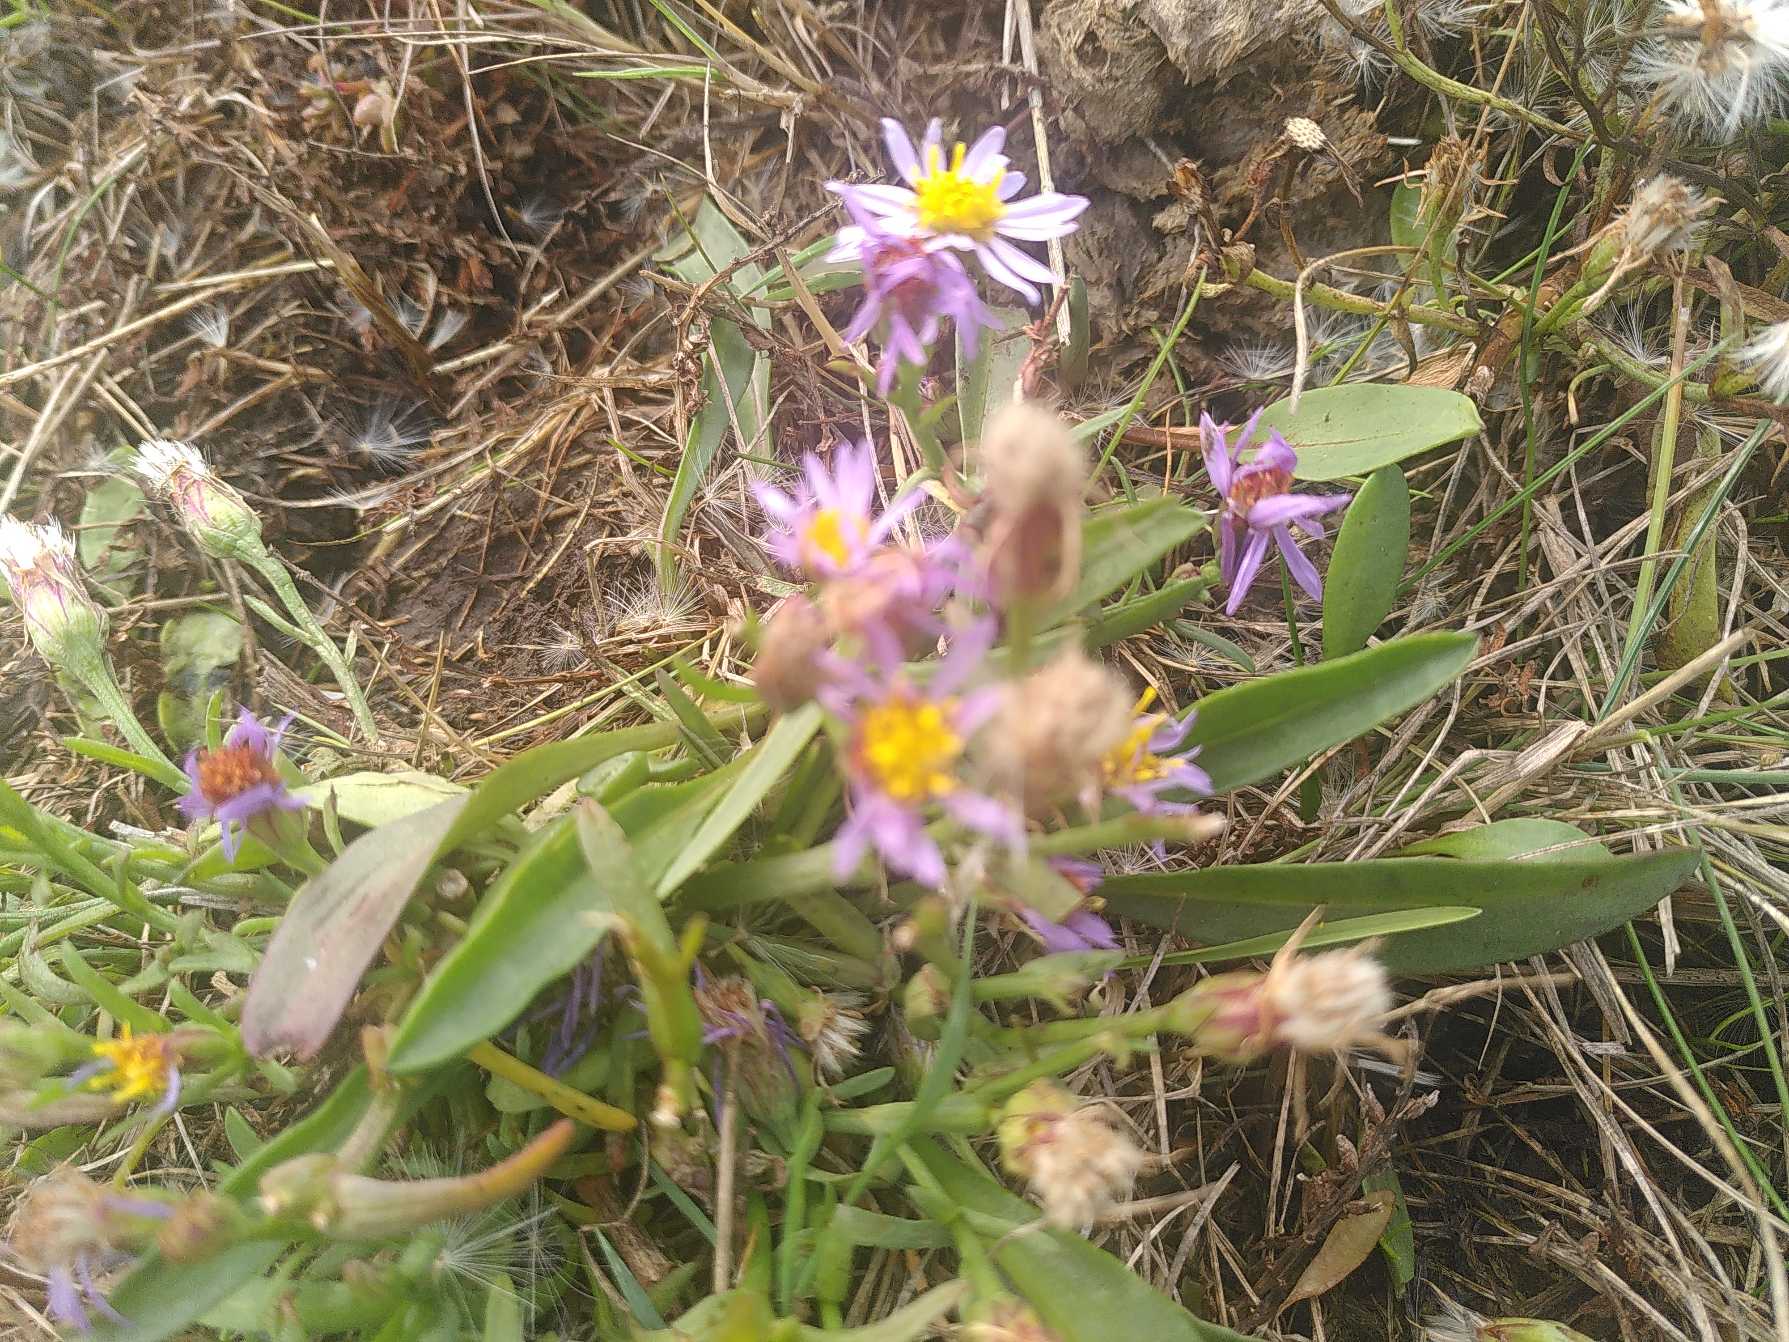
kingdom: Plantae
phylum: Tracheophyta
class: Magnoliopsida
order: Asterales
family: Asteraceae
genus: Tripolium
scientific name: Tripolium pannonicum
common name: Strandasters
